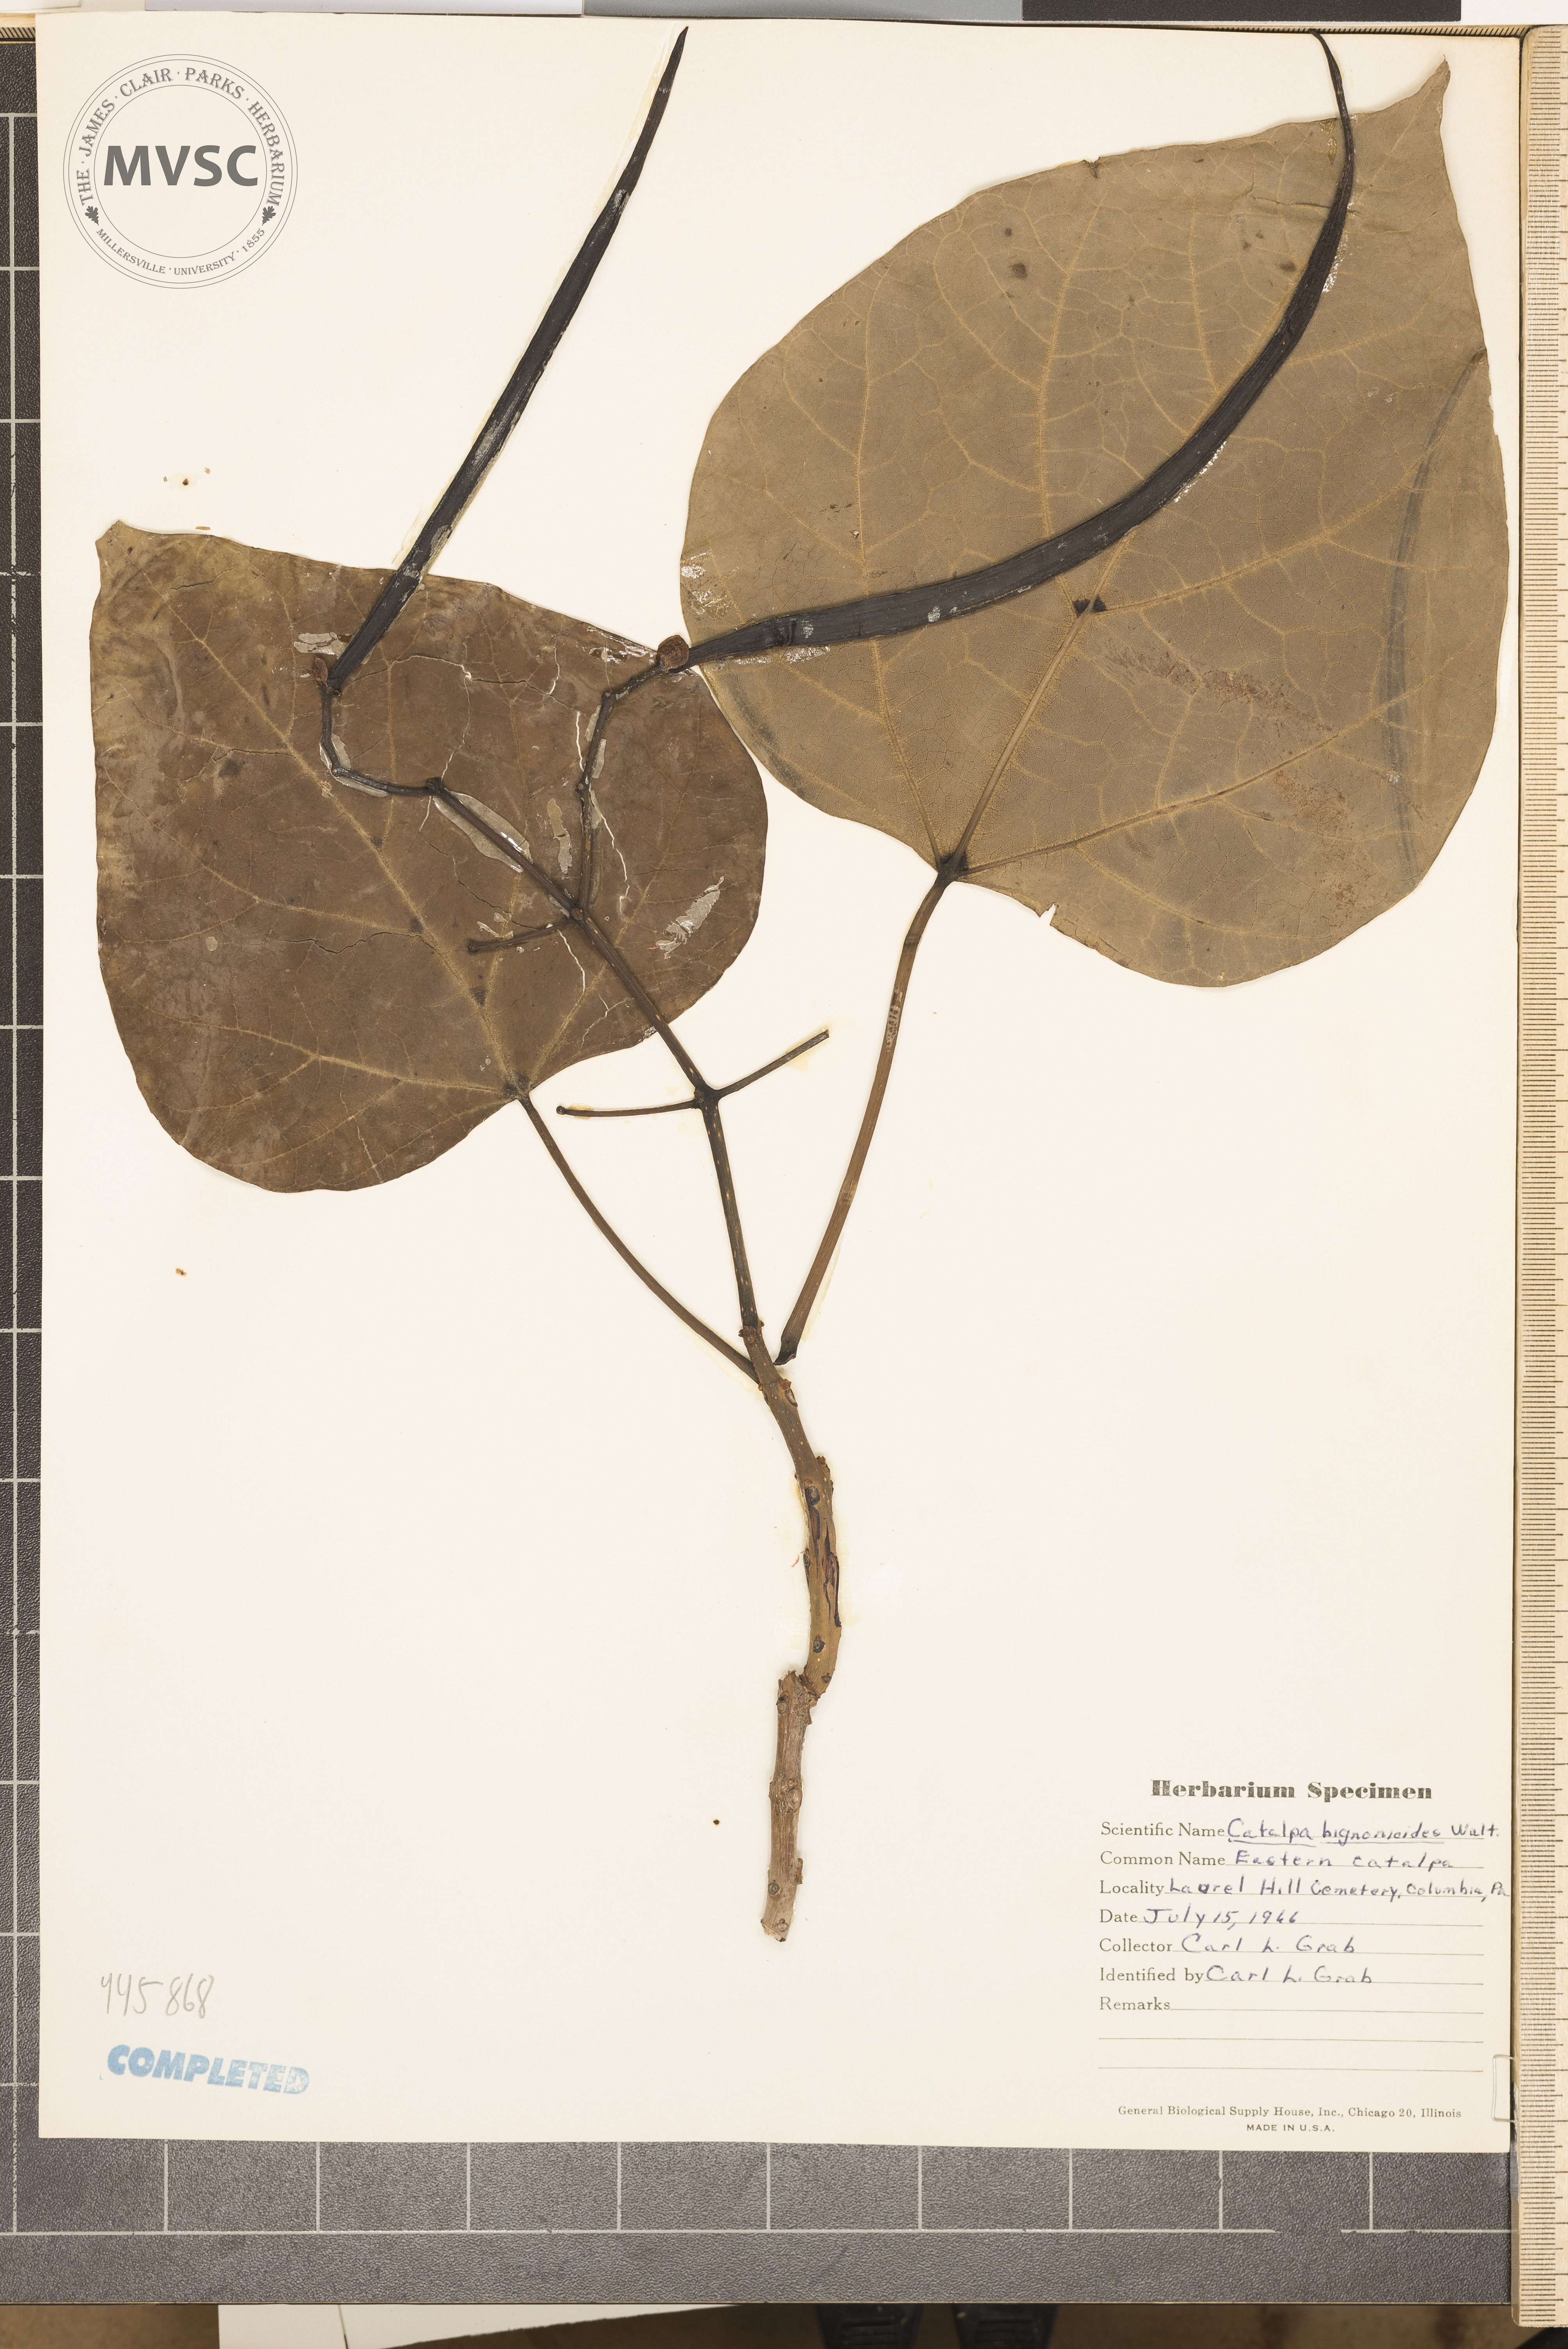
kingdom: Plantae
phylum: Tracheophyta
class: Magnoliopsida
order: Lamiales
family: Bignoniaceae
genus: Catalpa
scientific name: Catalpa bignonioides
